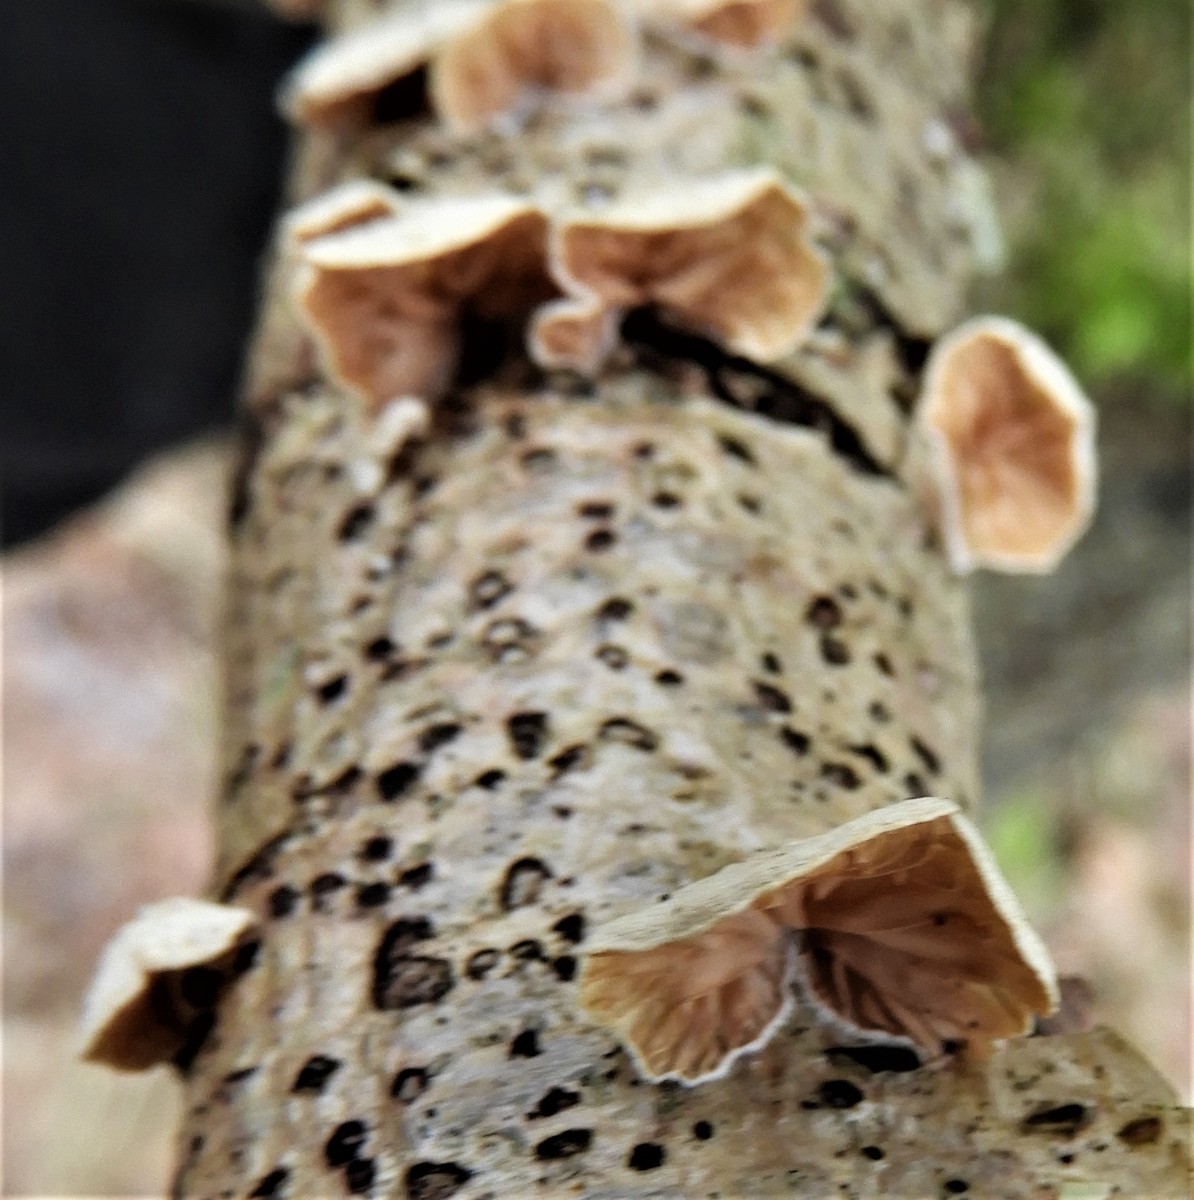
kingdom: Fungi
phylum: Basidiomycota
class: Agaricomycetes
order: Agaricales
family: Crepidotaceae
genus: Crepidotus
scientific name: Crepidotus
